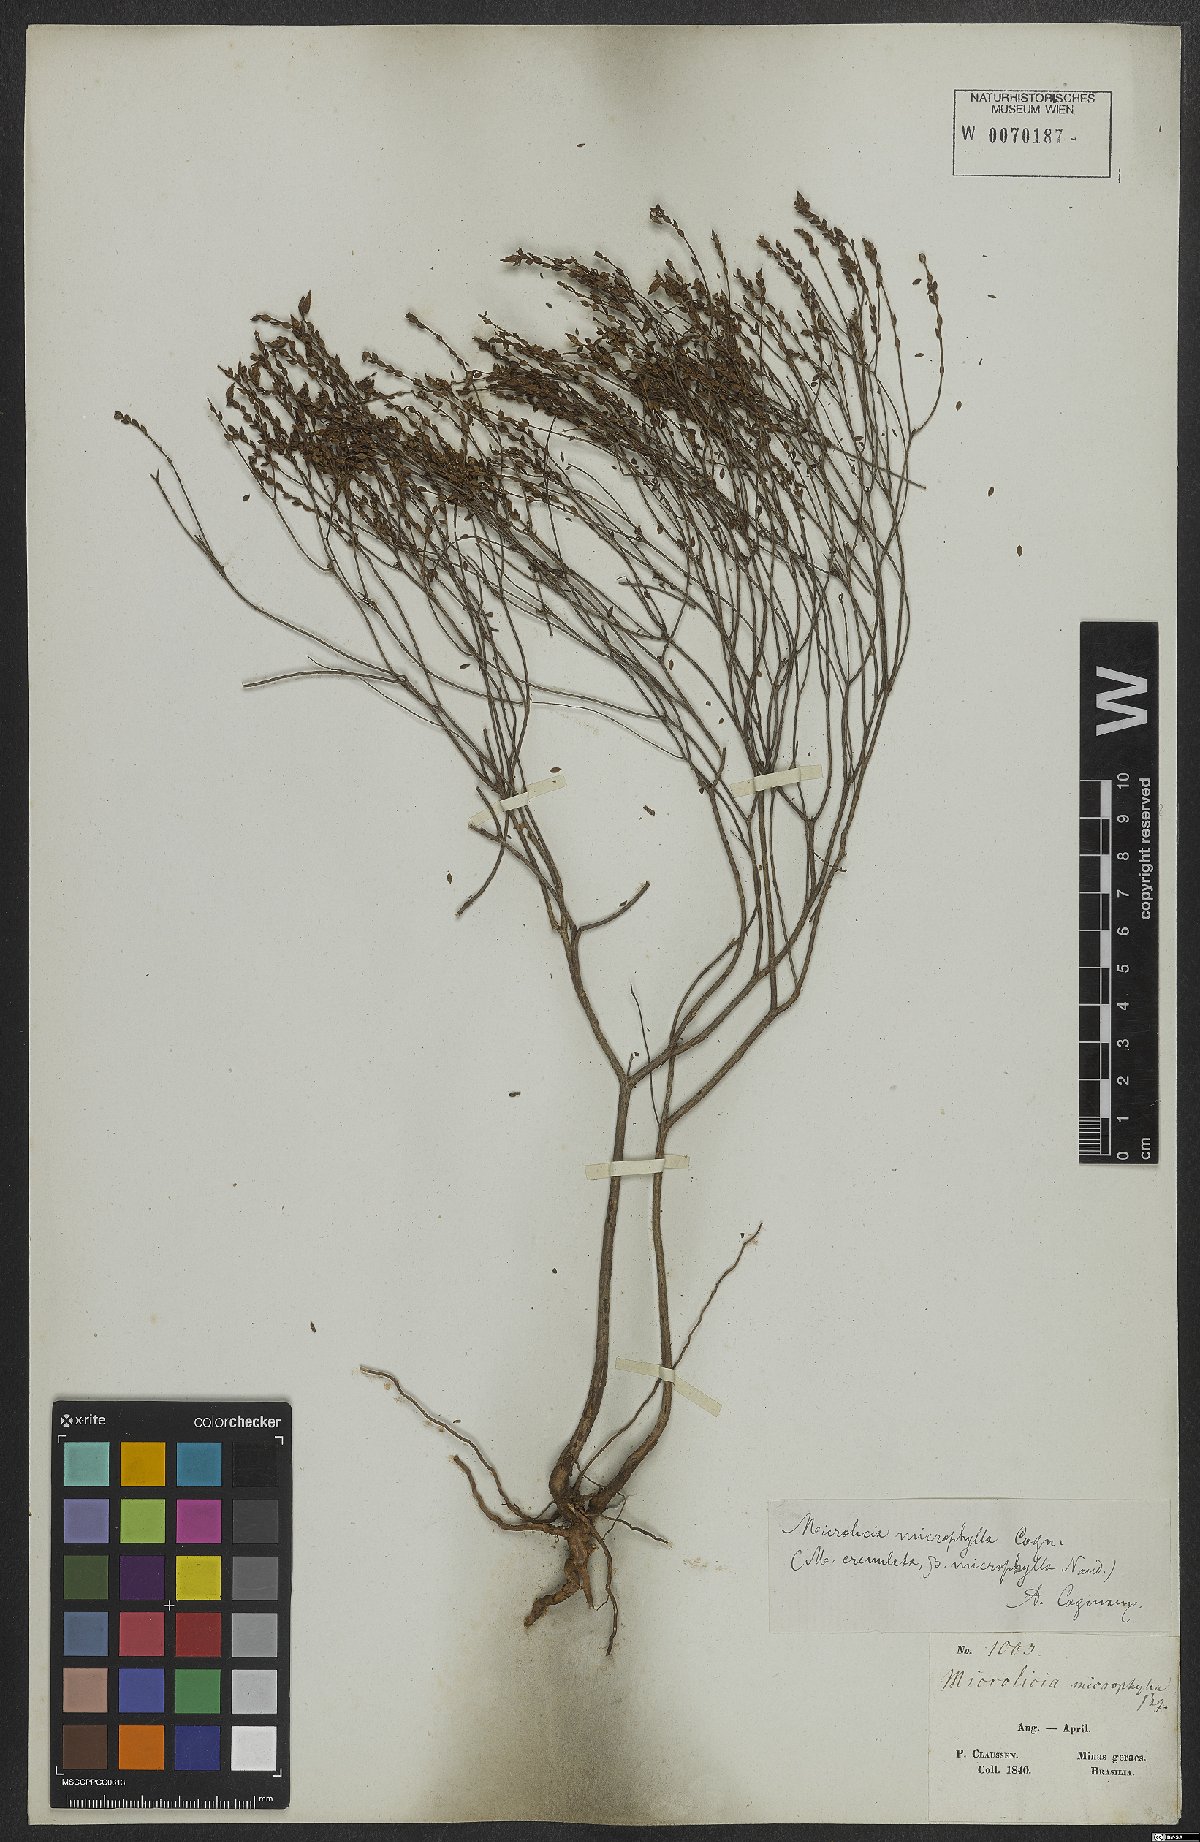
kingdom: Plantae
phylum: Tracheophyta
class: Magnoliopsida
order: Myrtales
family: Melastomataceae
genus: Microlicia
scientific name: Microlicia microphylla
